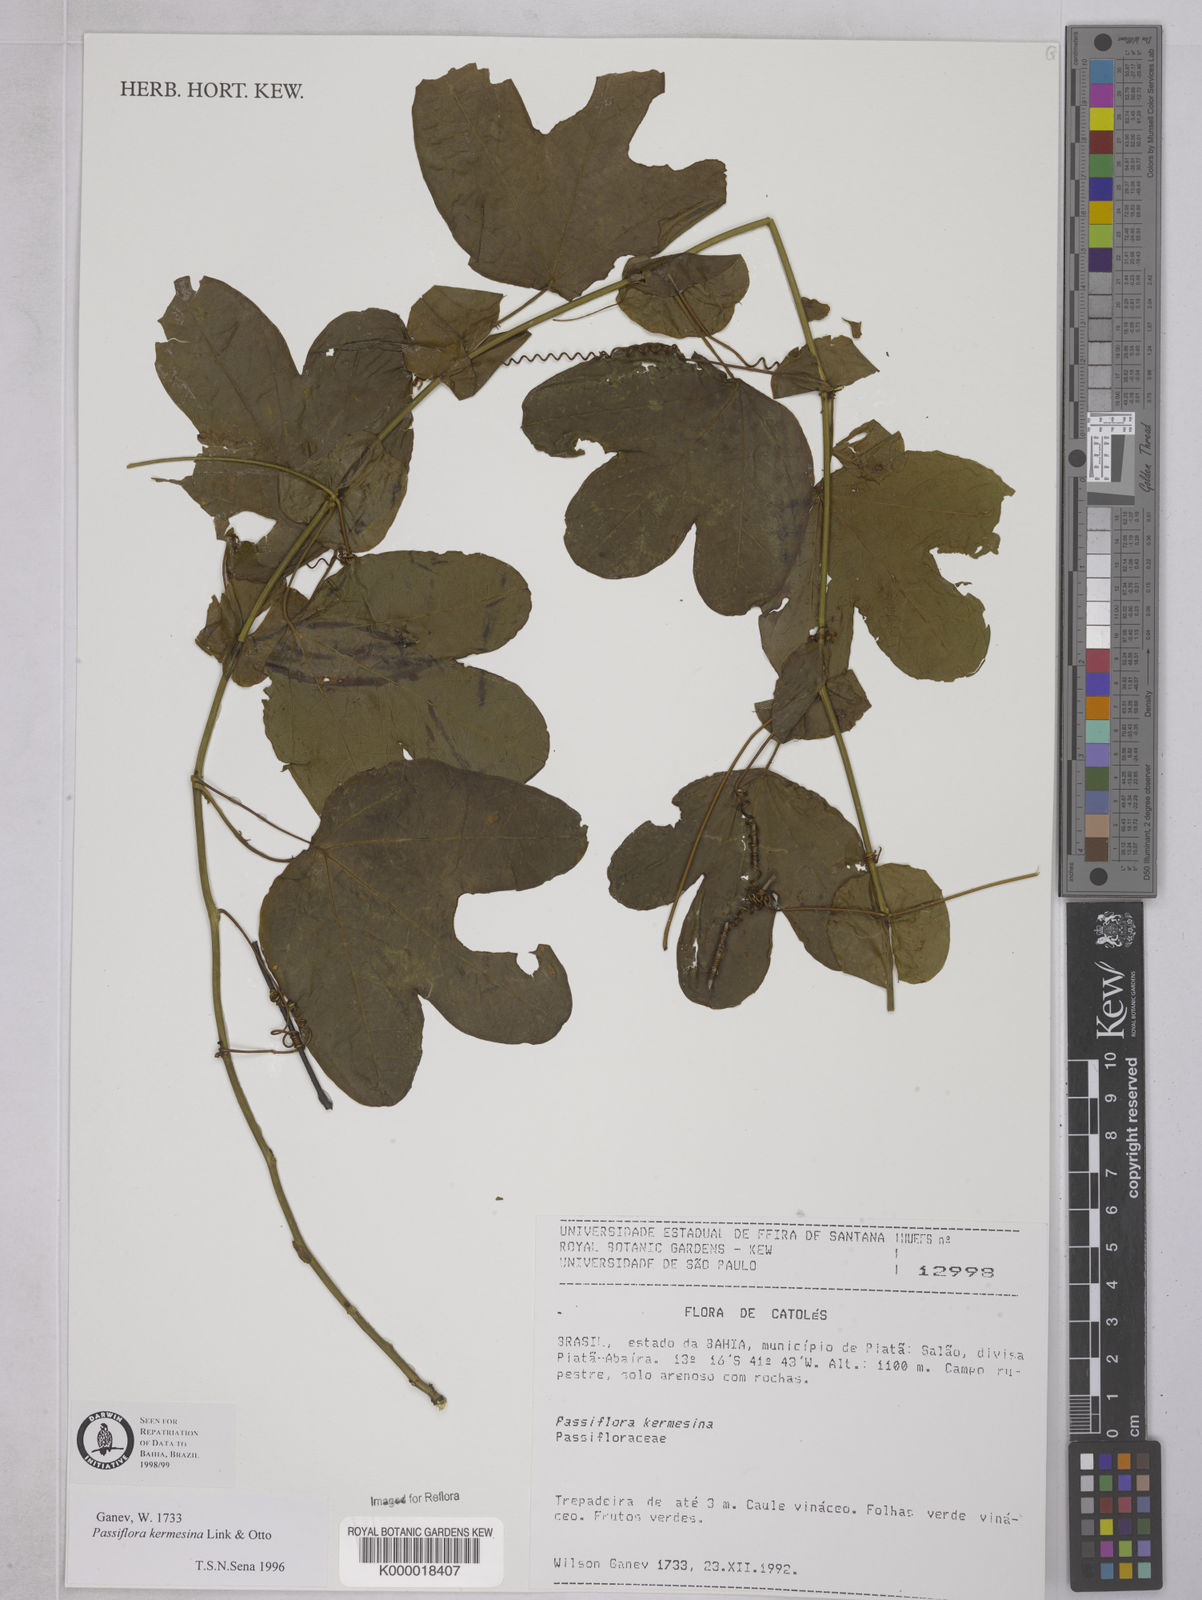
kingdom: Plantae
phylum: Tracheophyta
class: Magnoliopsida
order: Malpighiales
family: Passifloraceae
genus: Passiflora
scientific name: Passiflora kermesina
